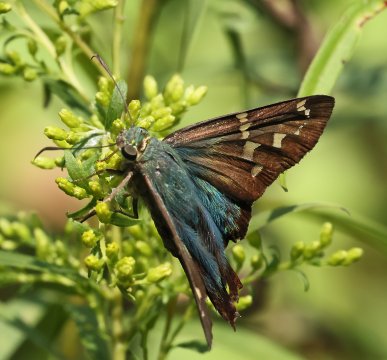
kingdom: Animalia
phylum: Arthropoda
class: Insecta
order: Lepidoptera
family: Hesperiidae
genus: Urbanus
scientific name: Urbanus proteus
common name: Long-tailed Skipper
